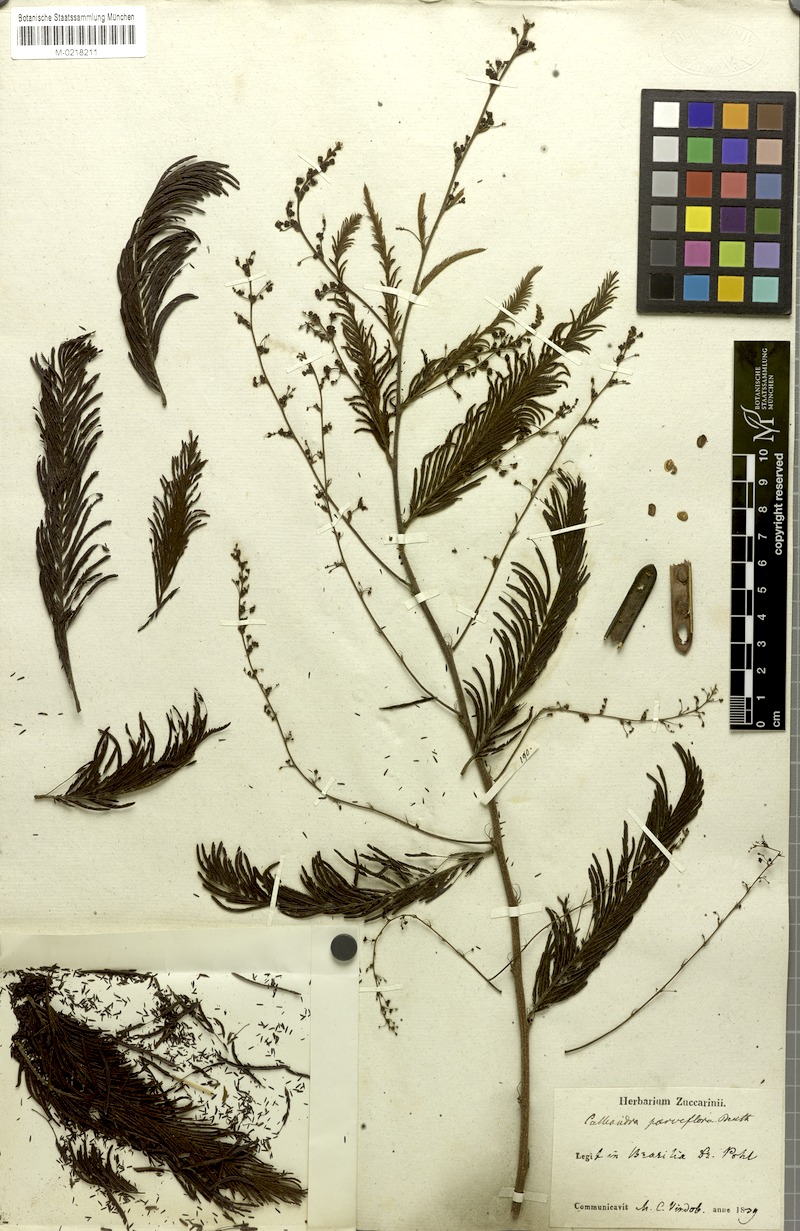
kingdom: Plantae
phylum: Tracheophyta
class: Magnoliopsida
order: Fabales
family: Fabaceae
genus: Calliandra
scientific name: Calliandra parviflora
